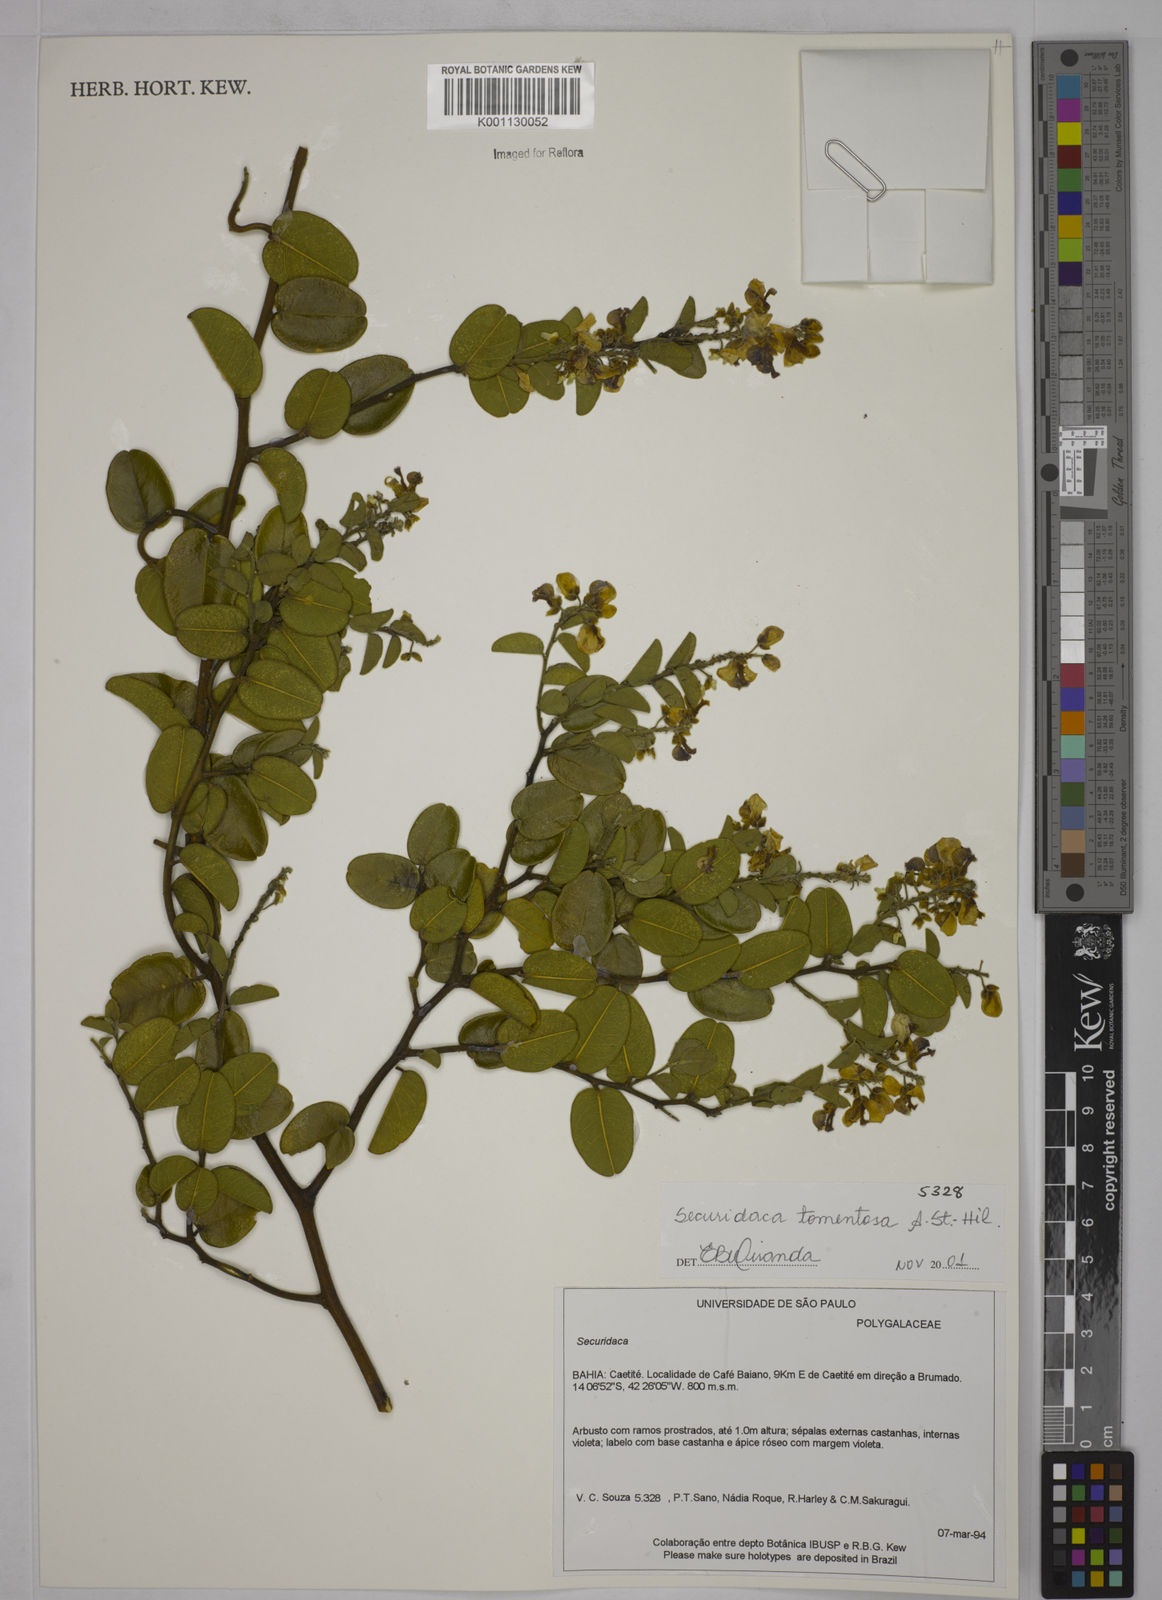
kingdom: Plantae
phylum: Tracheophyta
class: Magnoliopsida
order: Fabales
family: Polygalaceae
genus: Securidaca
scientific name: Securidaca tomentosa
